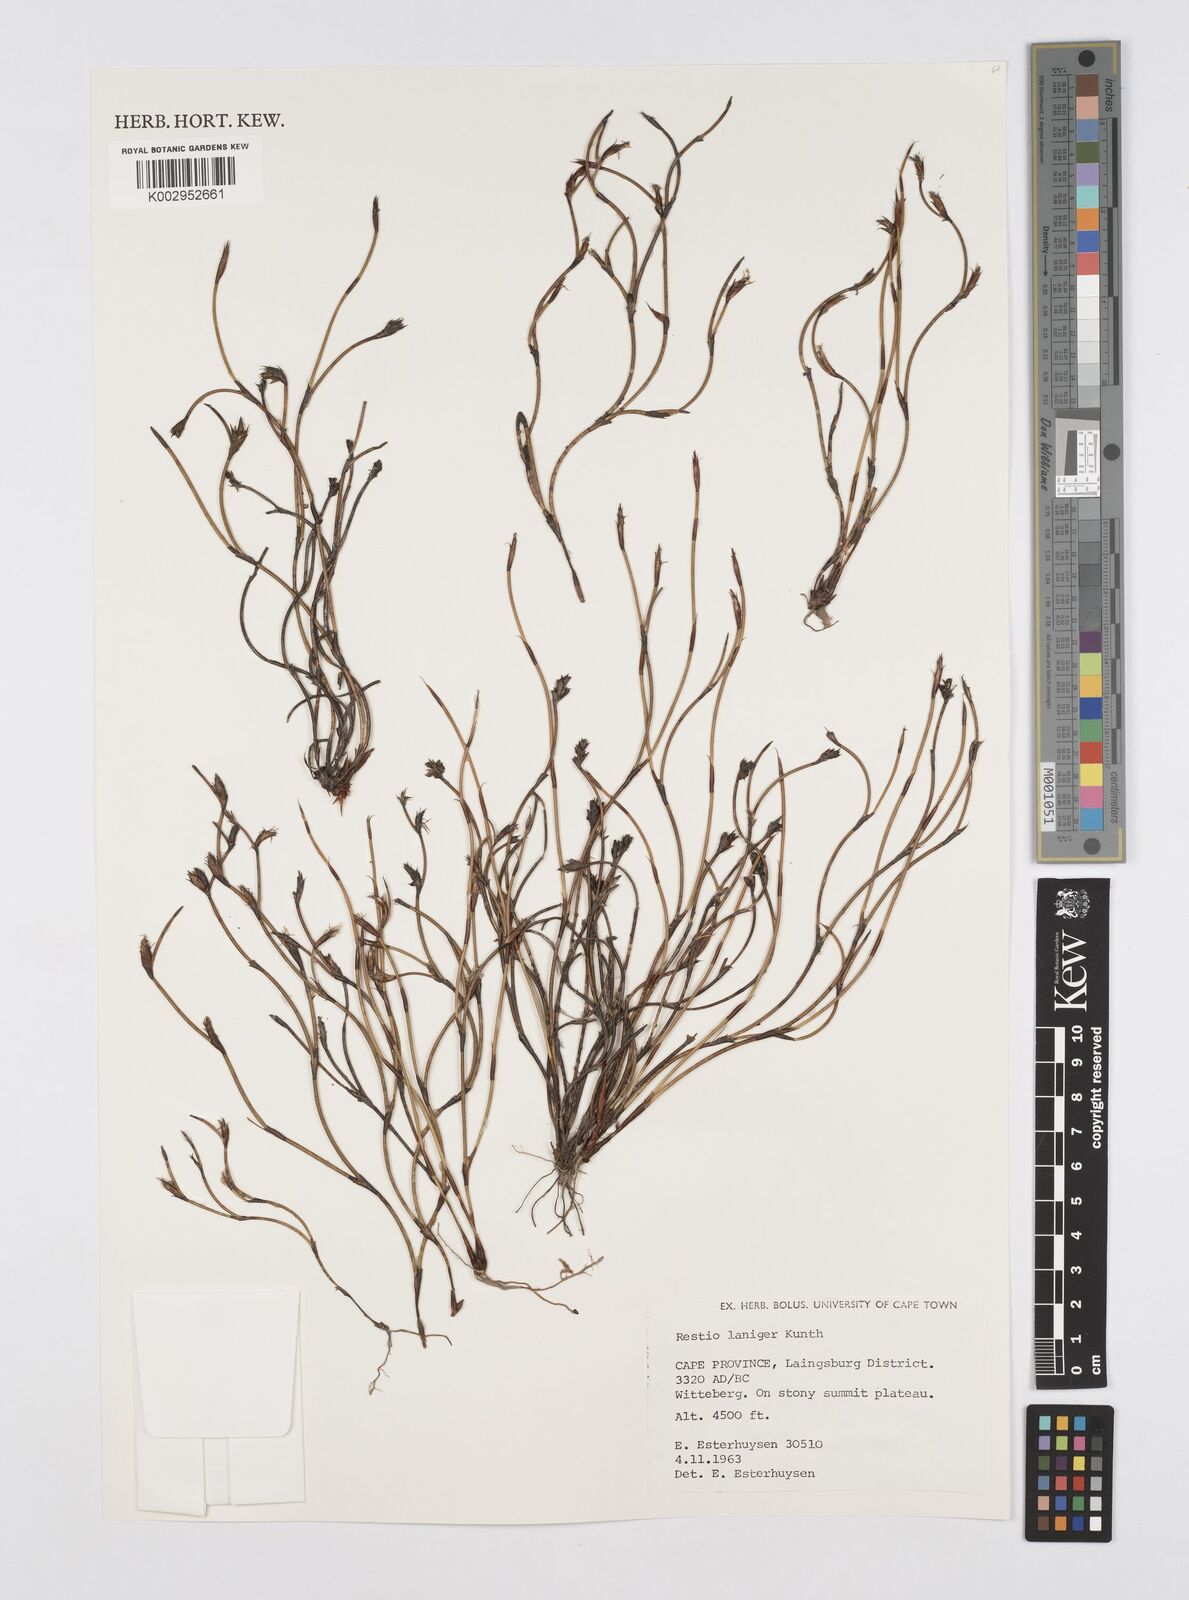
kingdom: Plantae
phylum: Tracheophyta
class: Liliopsida
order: Poales
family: Restionaceae
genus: Restio
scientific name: Restio laniger
